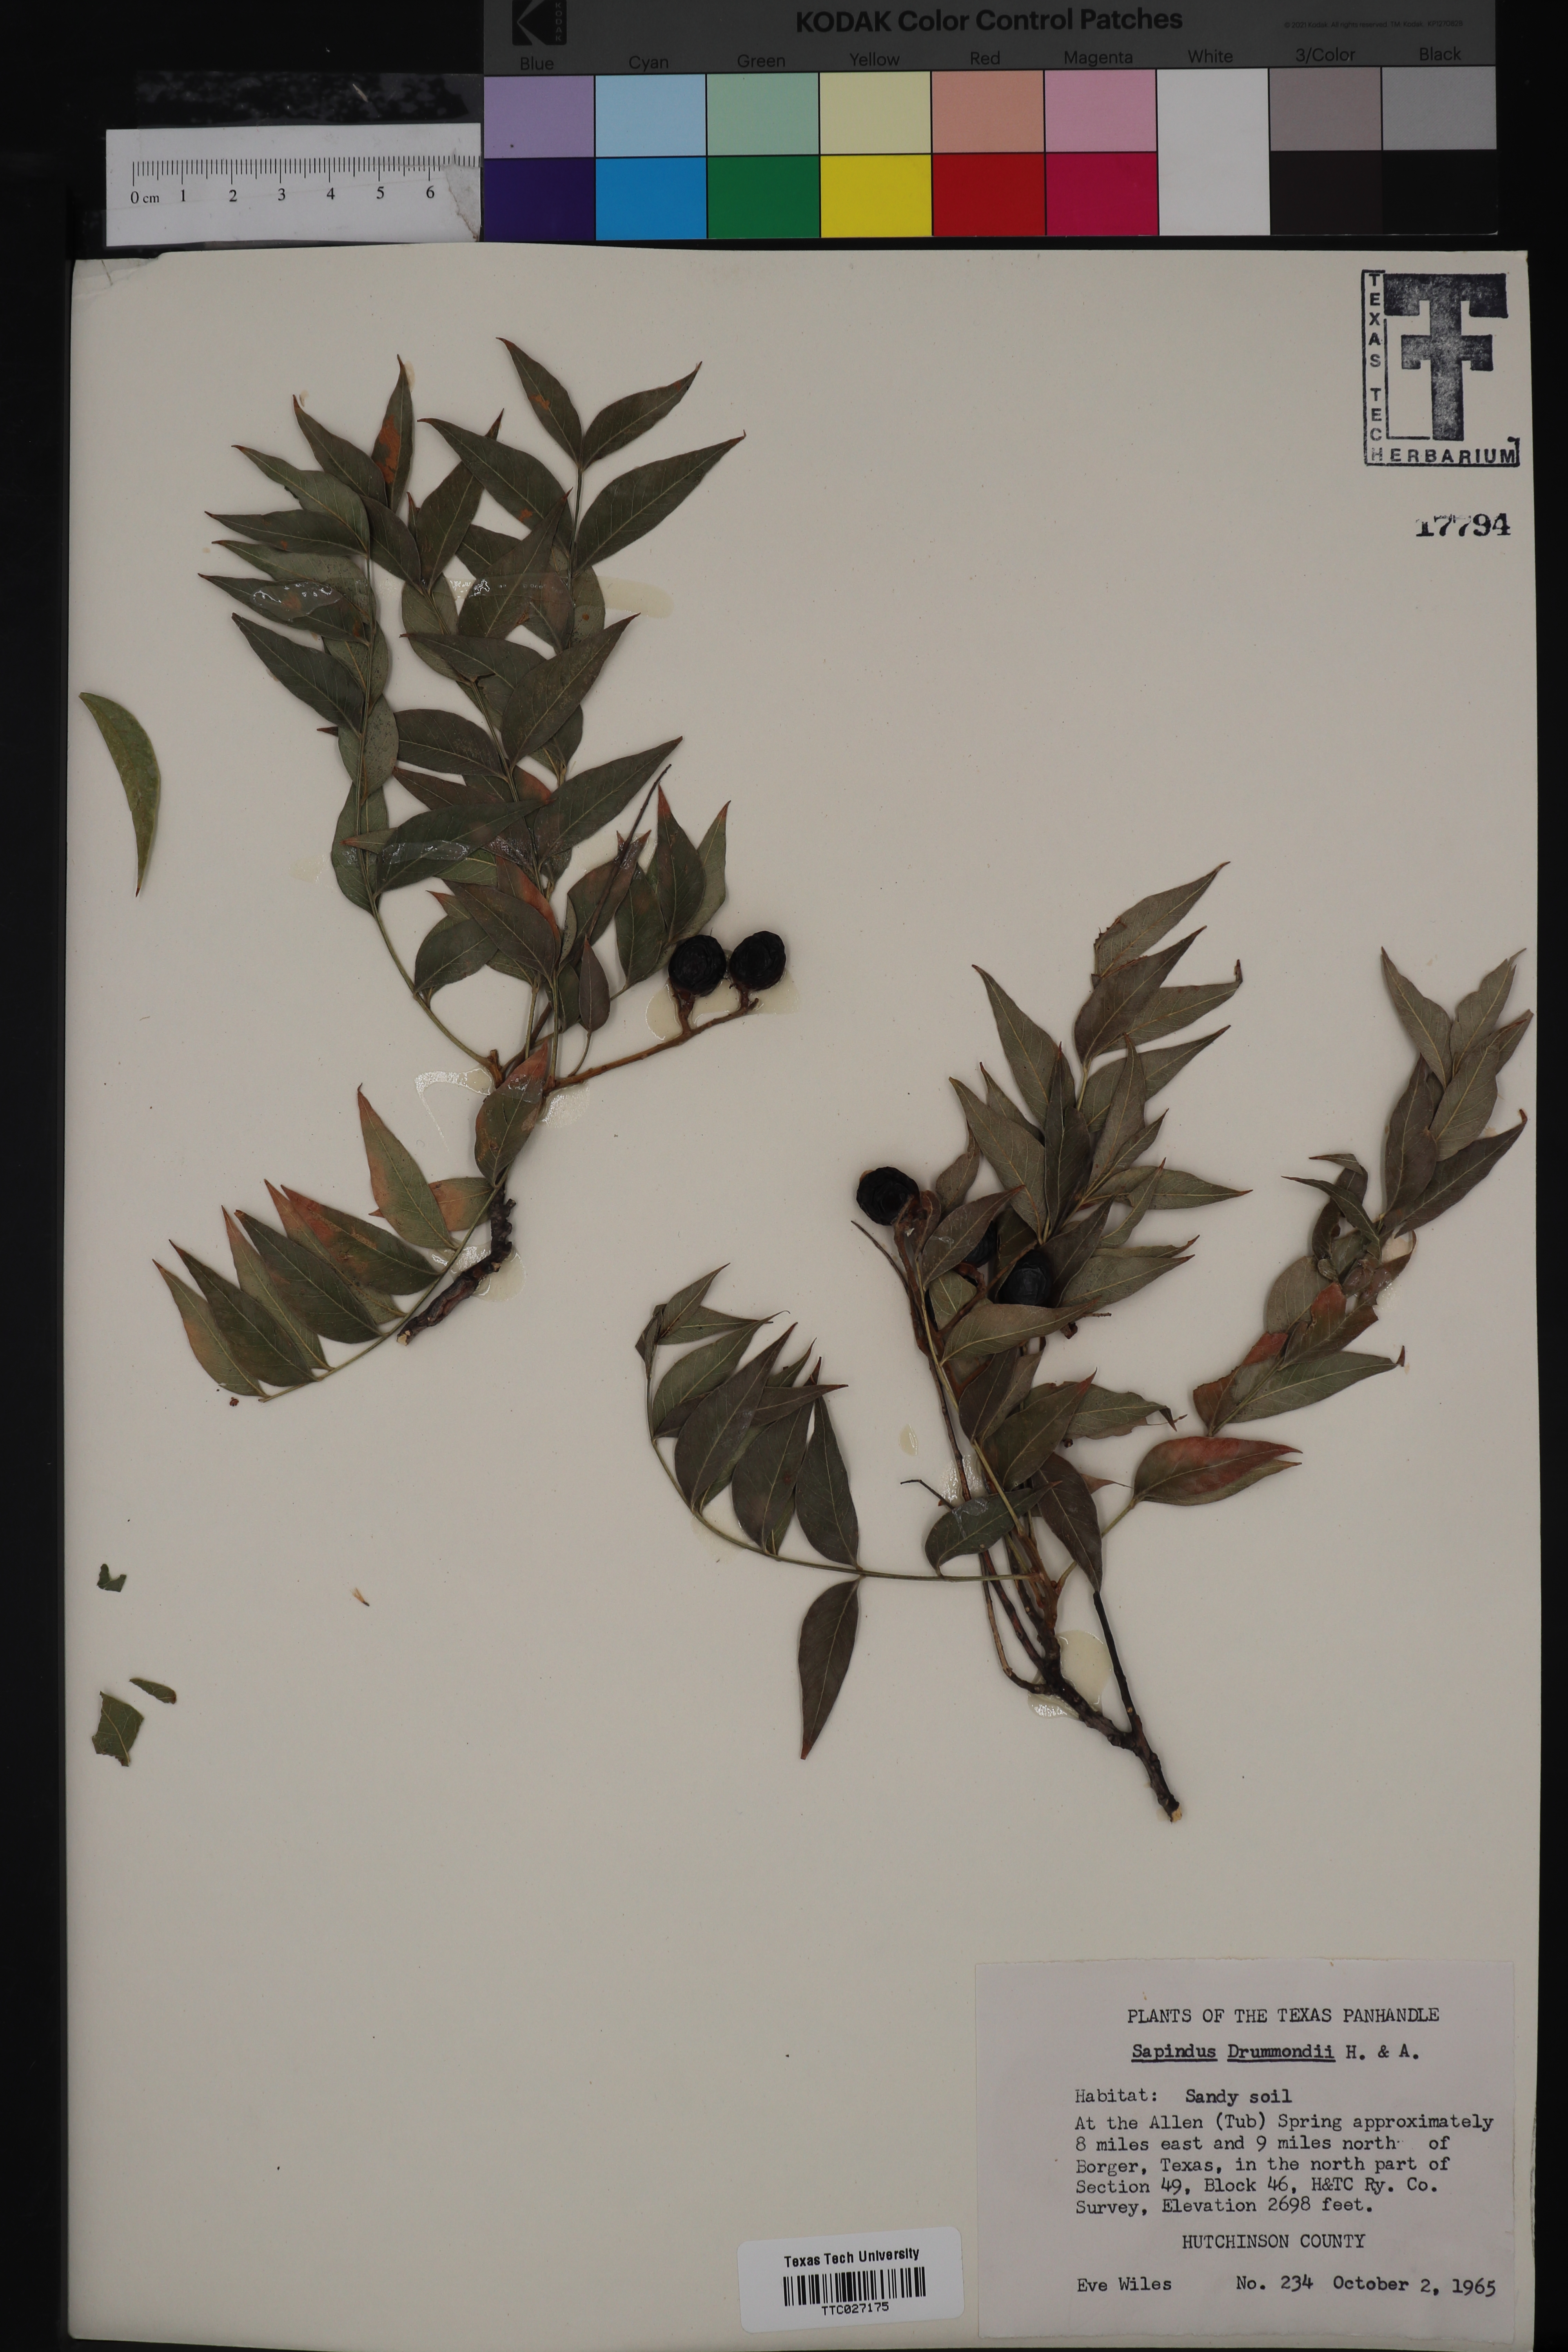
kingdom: Plantae
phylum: Tracheophyta
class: Magnoliopsida
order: Sapindales
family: Sapindaceae
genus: Sapindus
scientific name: Sapindus drummondii
